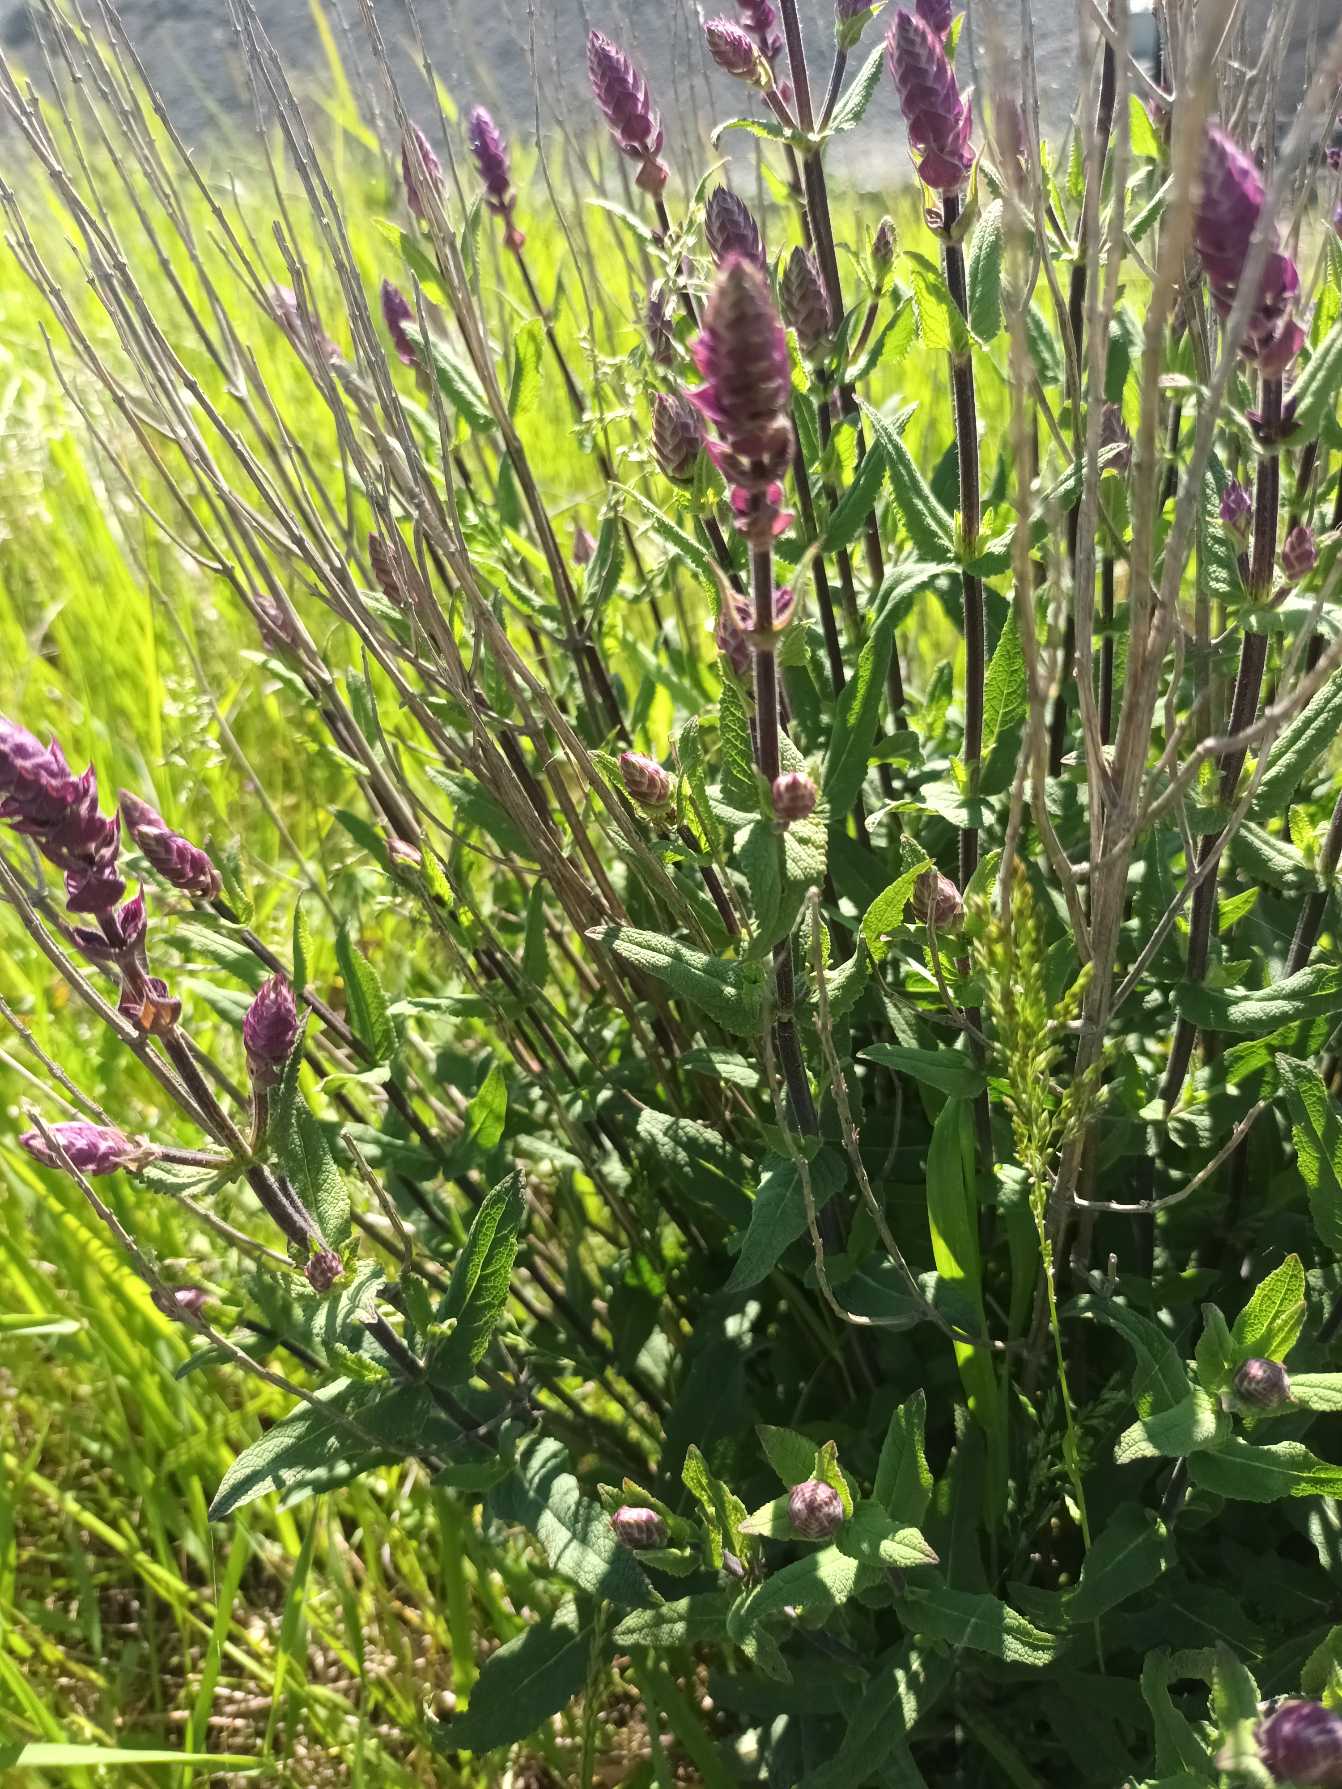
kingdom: Plantae
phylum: Tracheophyta
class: Magnoliopsida
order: Lamiales
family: Lamiaceae
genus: Salvia
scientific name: Salvia nemorosa
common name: Småblomstret salvie
